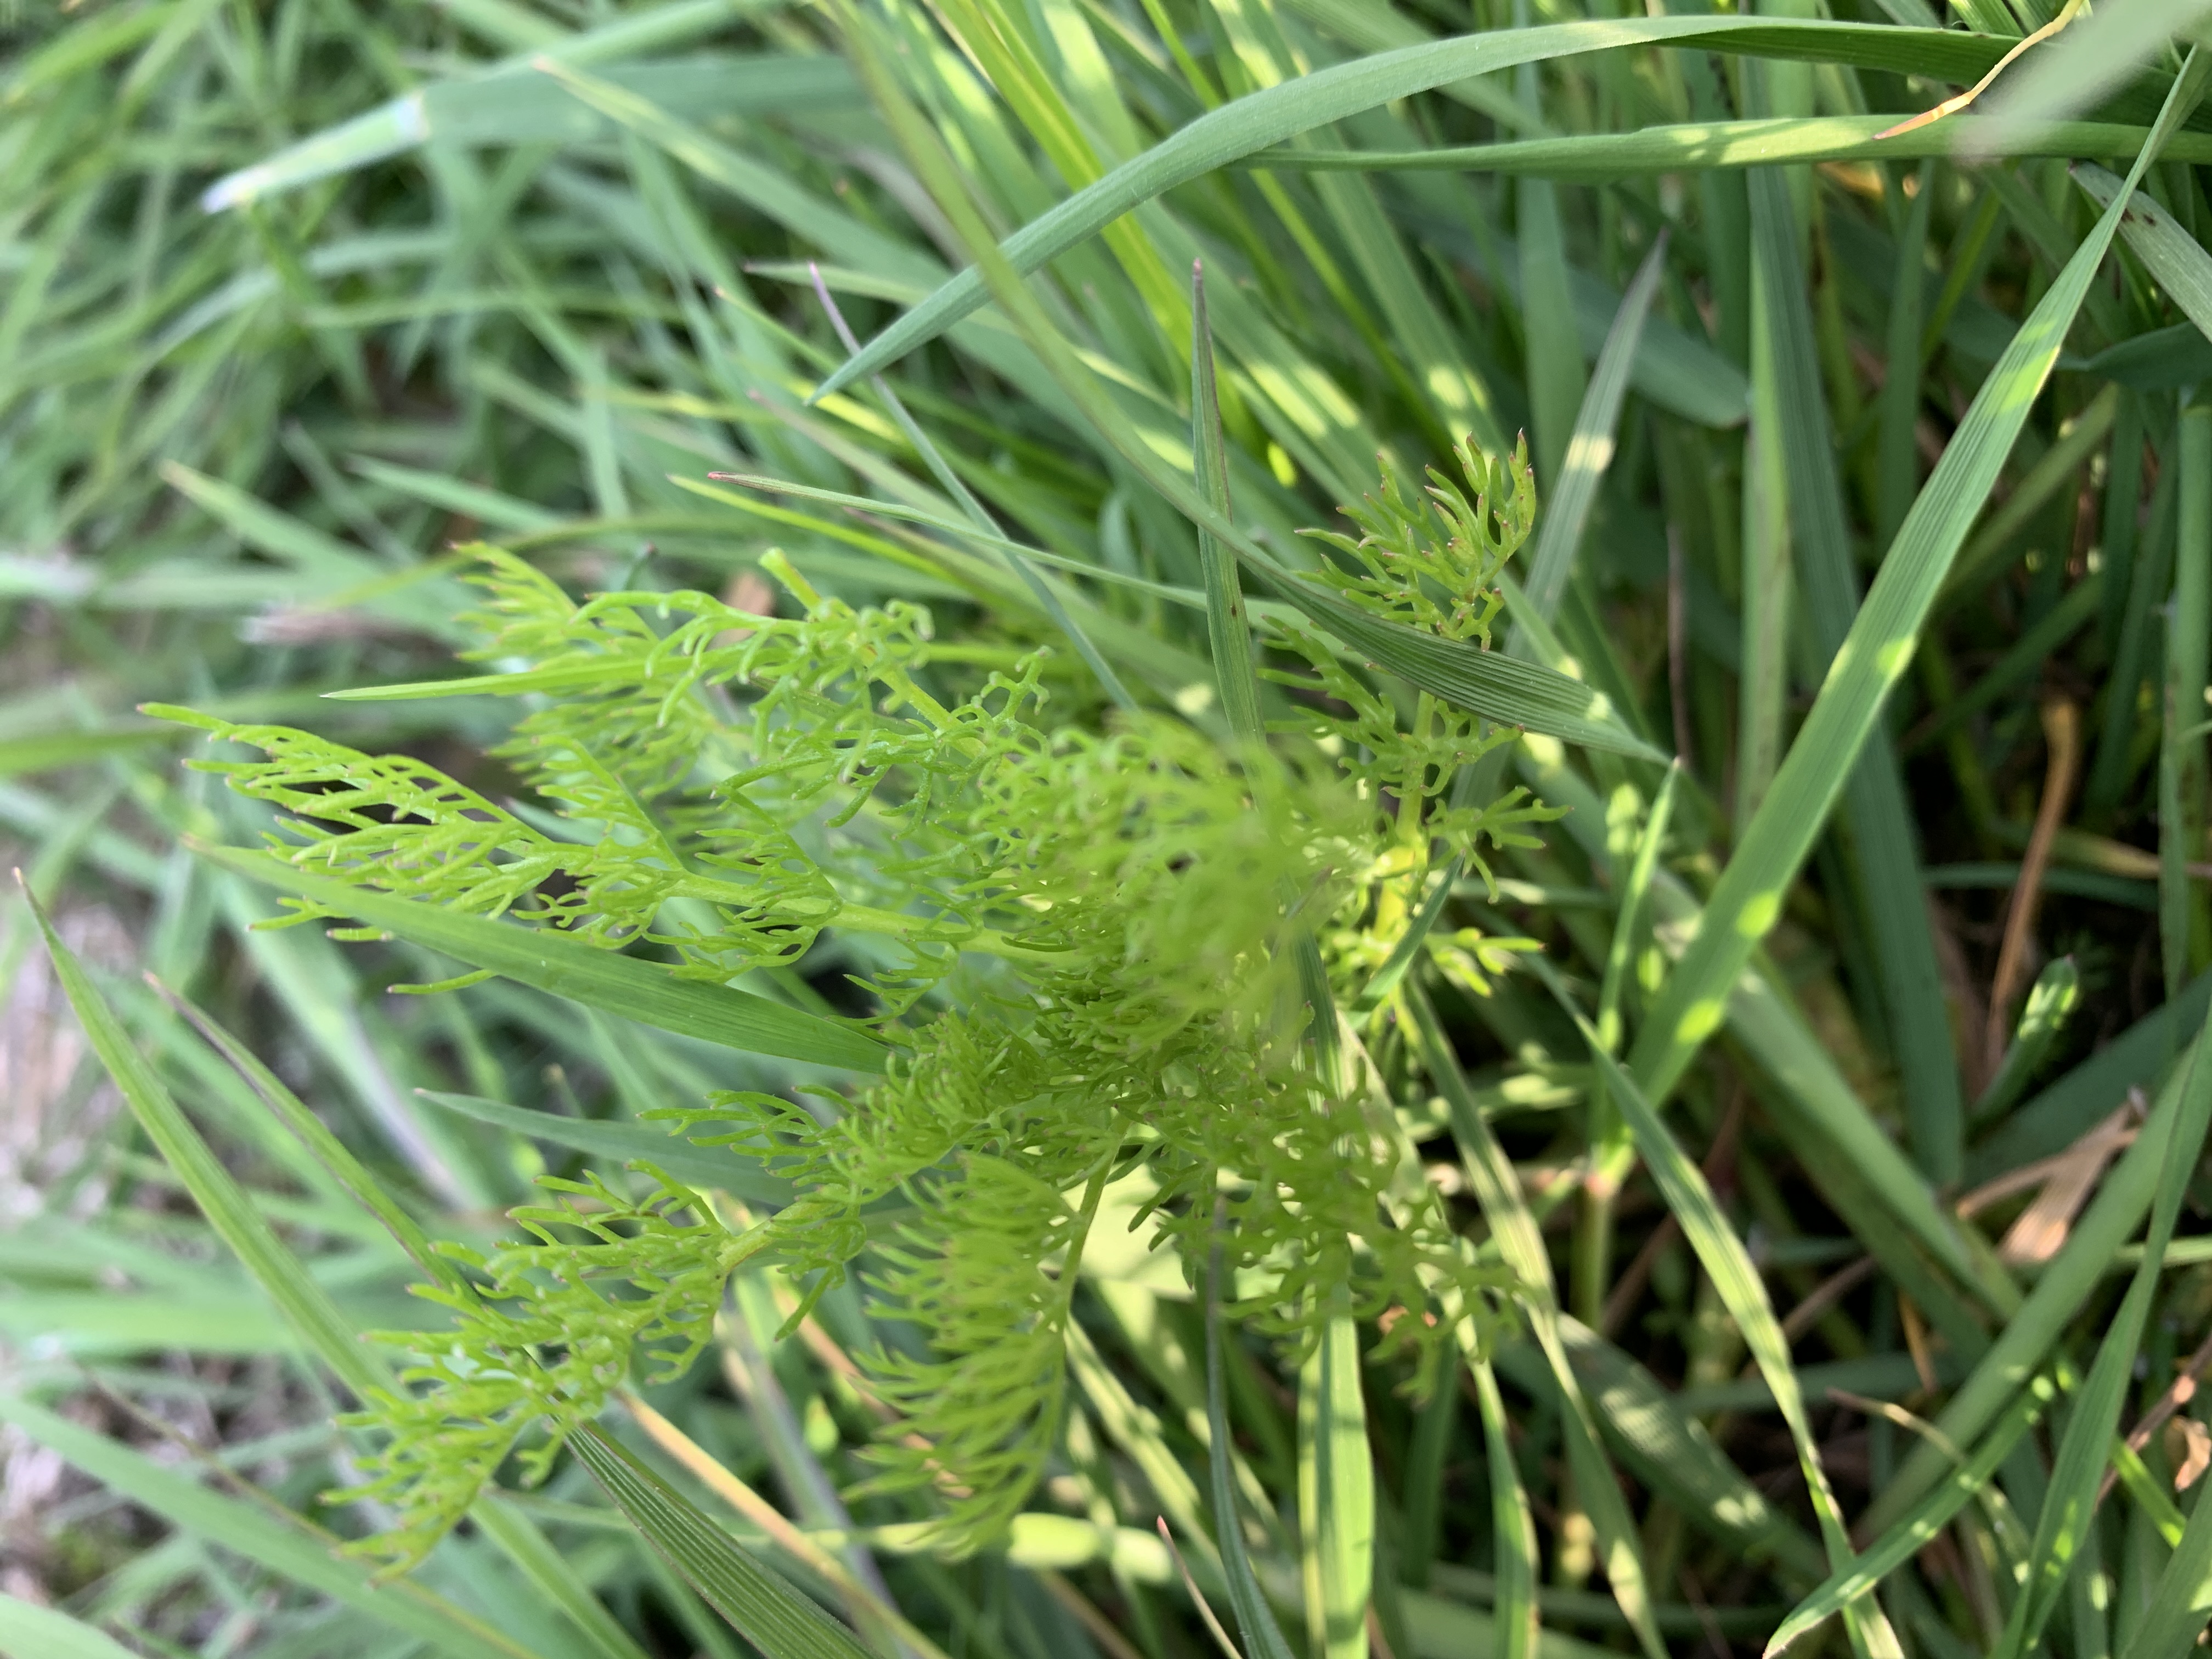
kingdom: Plantae
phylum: Tracheophyta
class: Magnoliopsida
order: Asterales
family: Asteraceae
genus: Tripleurospermum
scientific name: Tripleurospermum inodorum
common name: Lugtløs kamille
